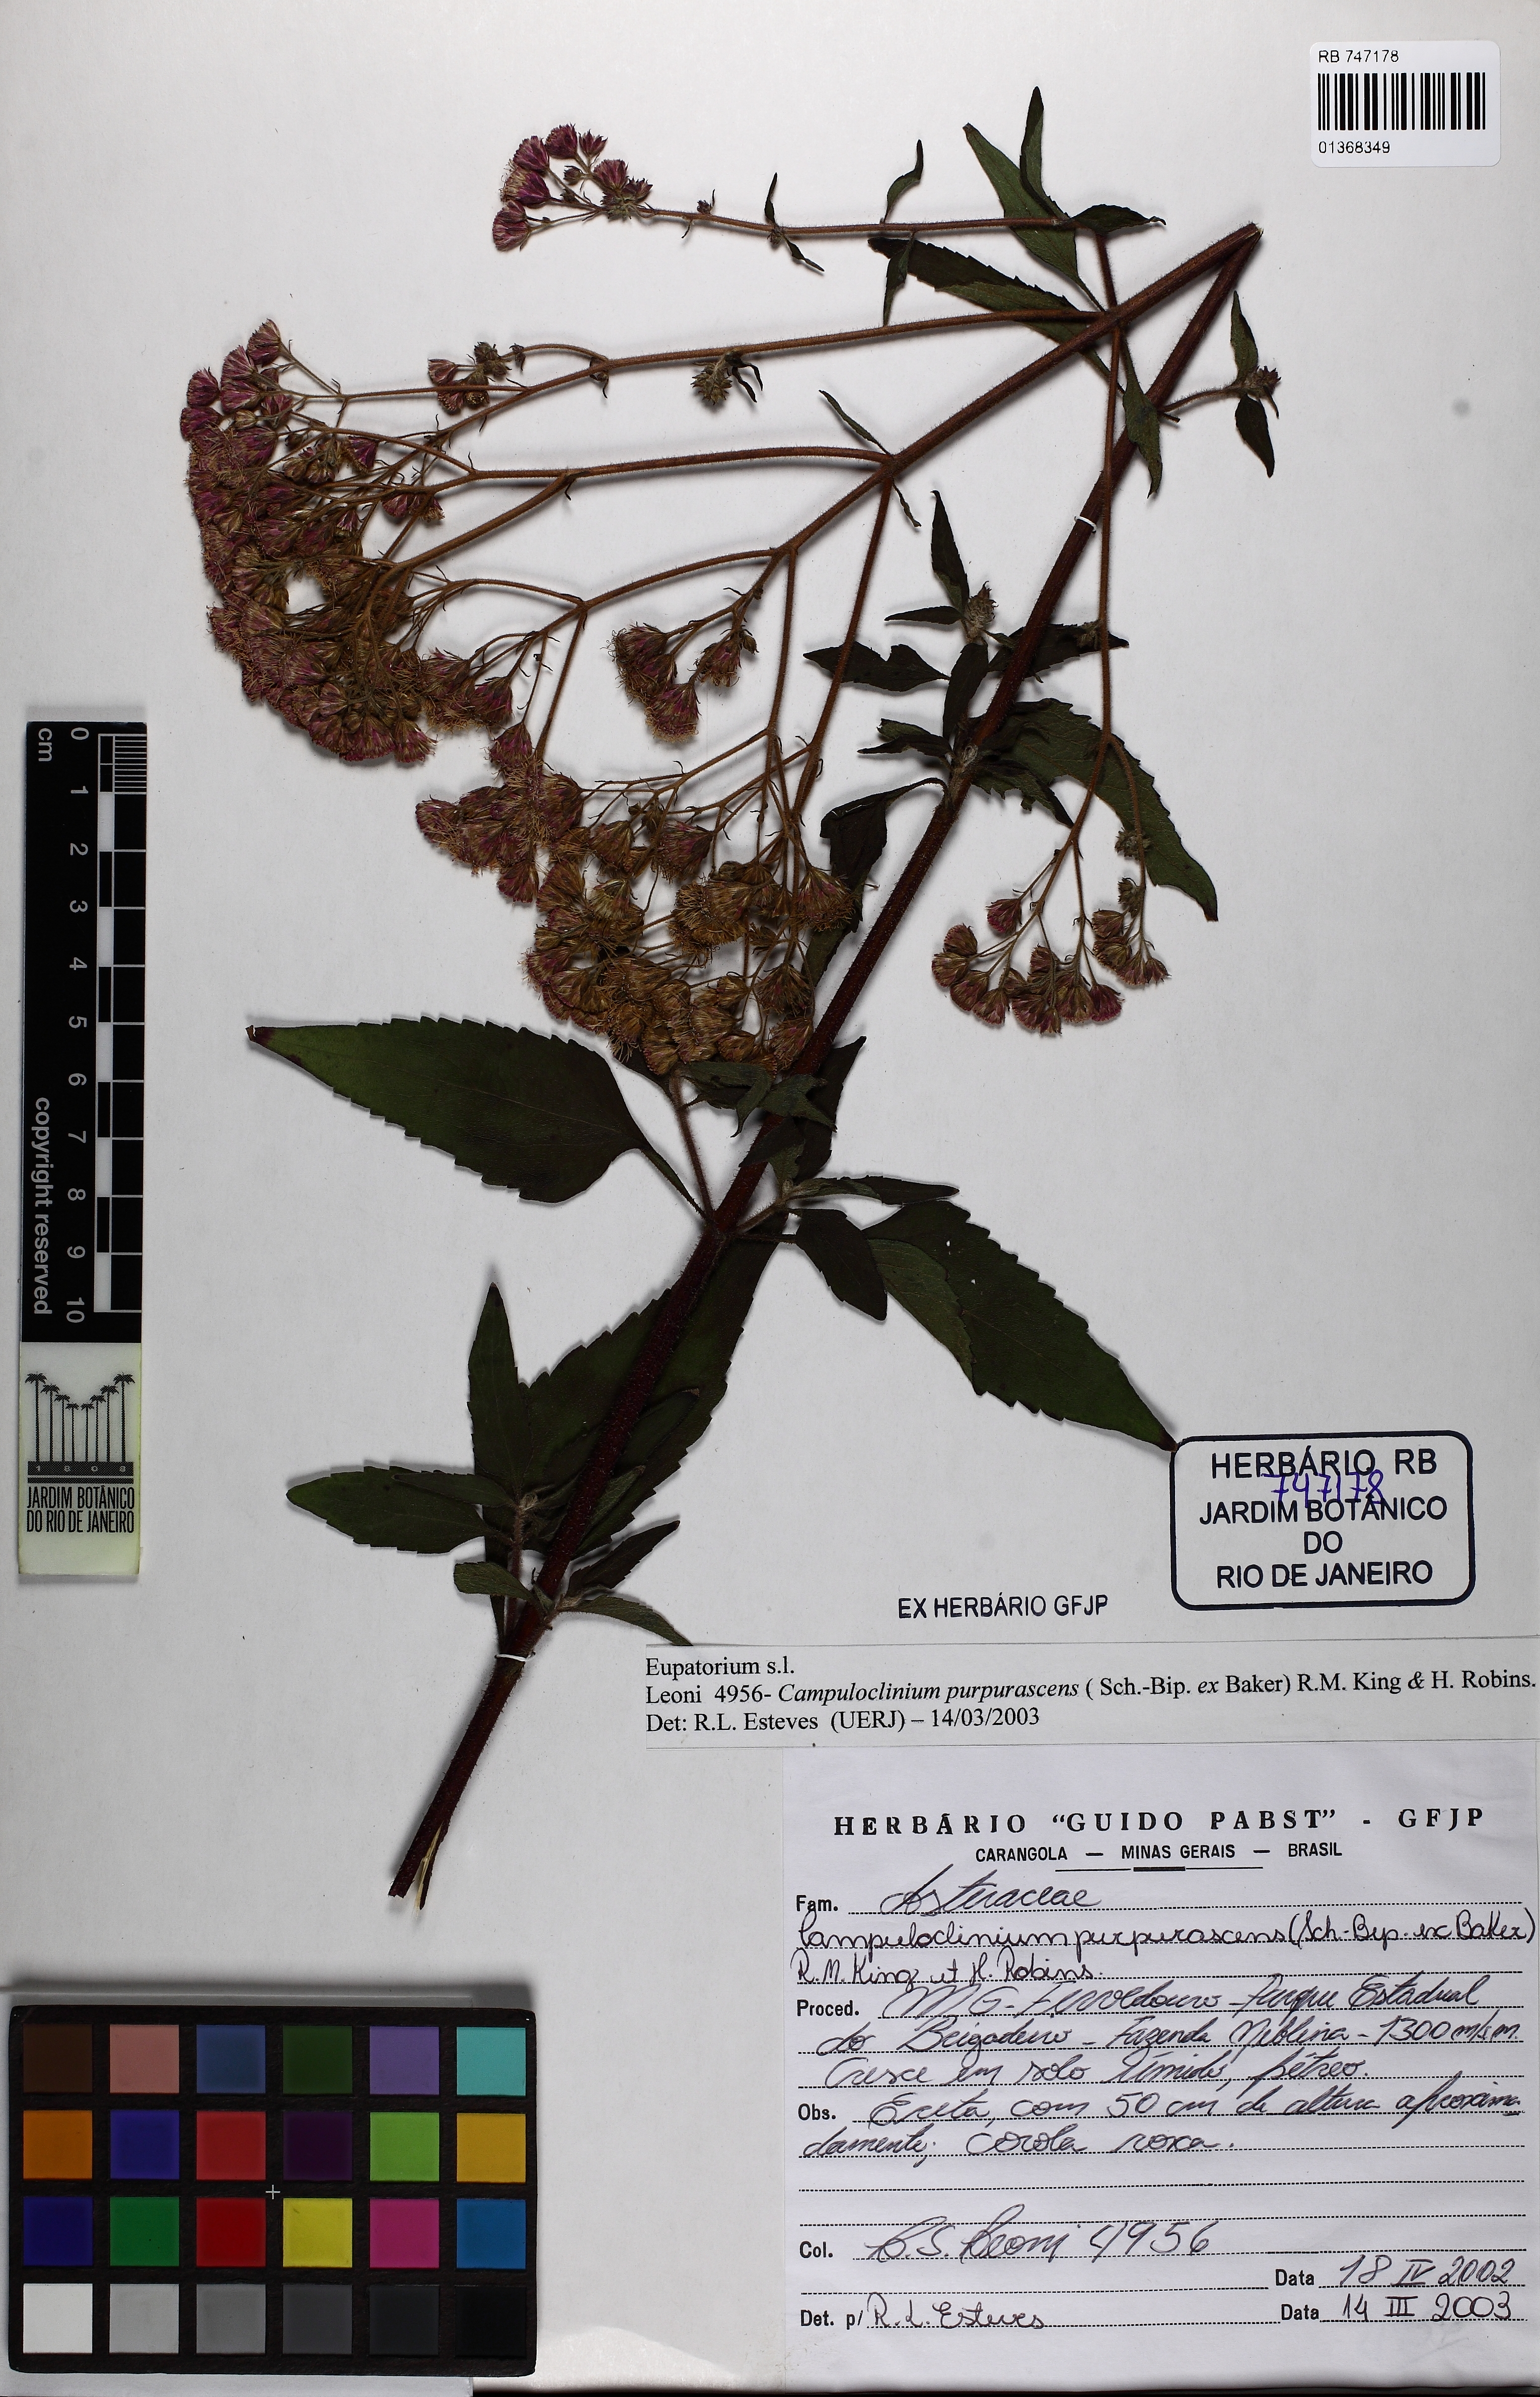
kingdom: Plantae
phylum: Tracheophyta
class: Magnoliopsida
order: Asterales
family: Asteraceae
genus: Eupatorium
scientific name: Eupatorium
